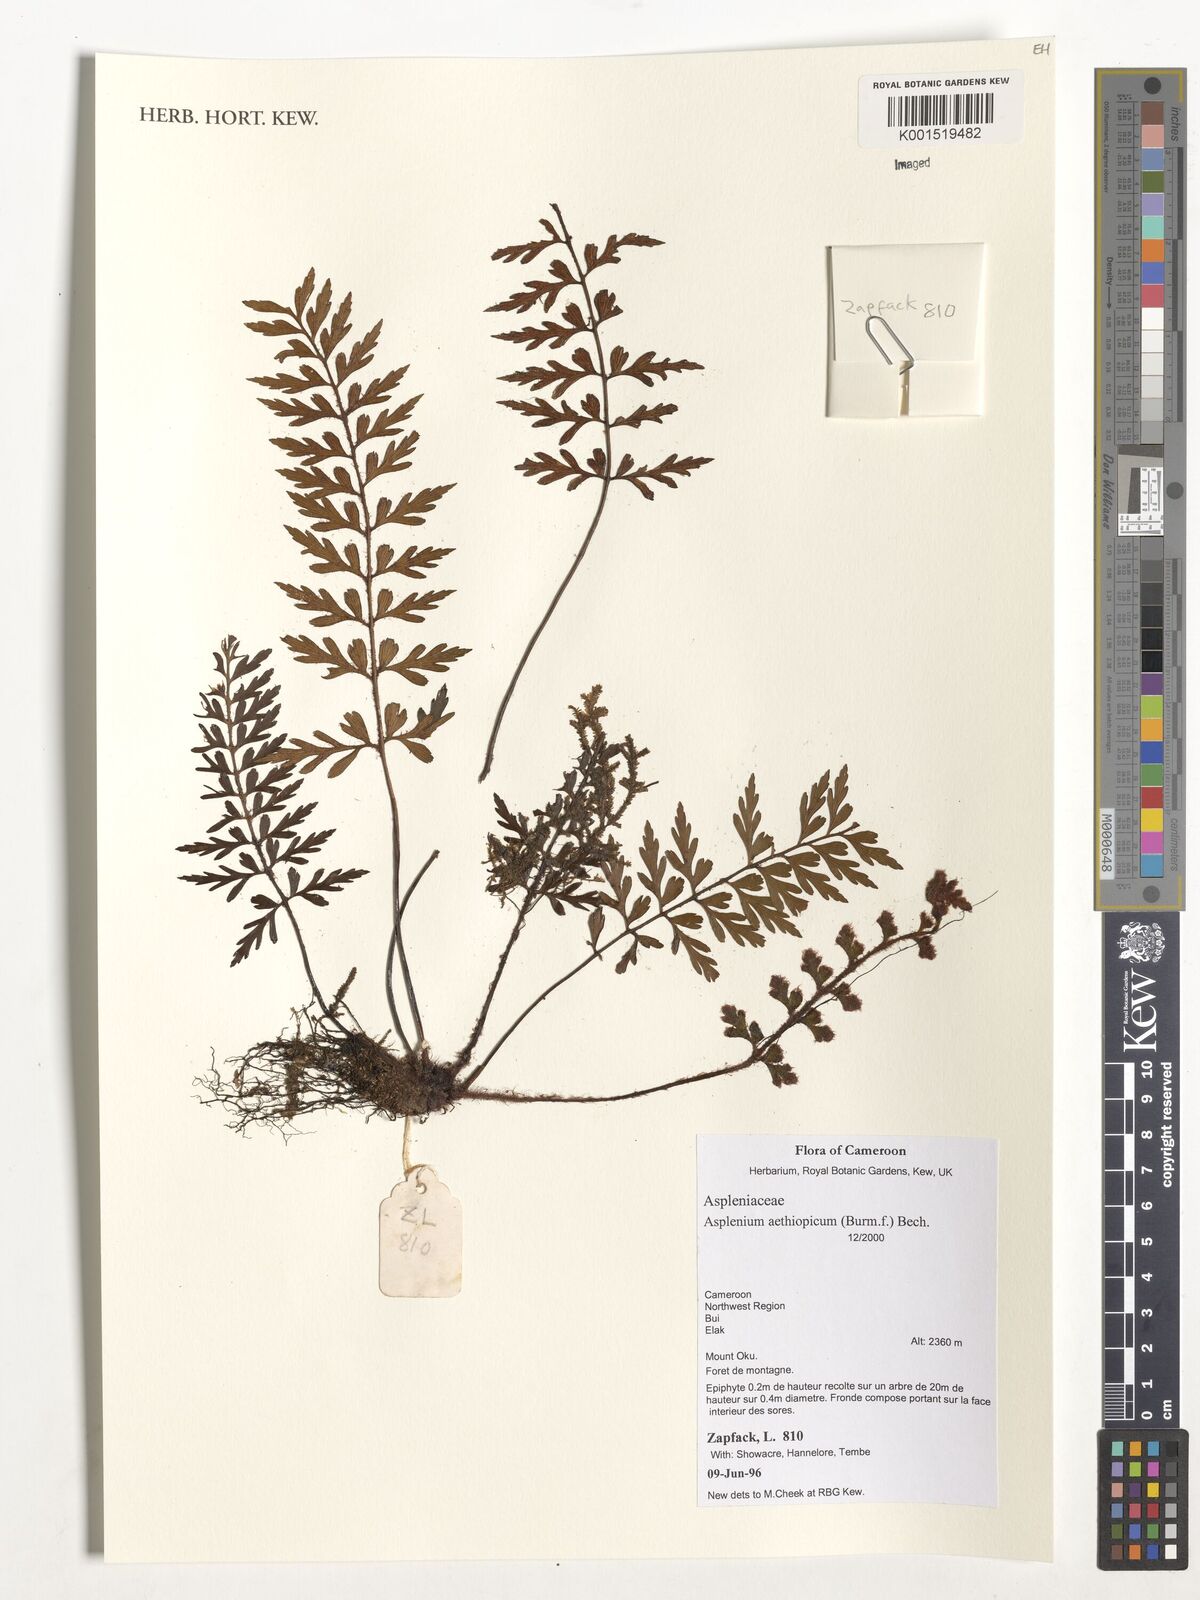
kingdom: Plantae
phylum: Tracheophyta
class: Polypodiopsida
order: Polypodiales
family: Aspleniaceae
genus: Asplenium
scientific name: Asplenium aethiopicum
